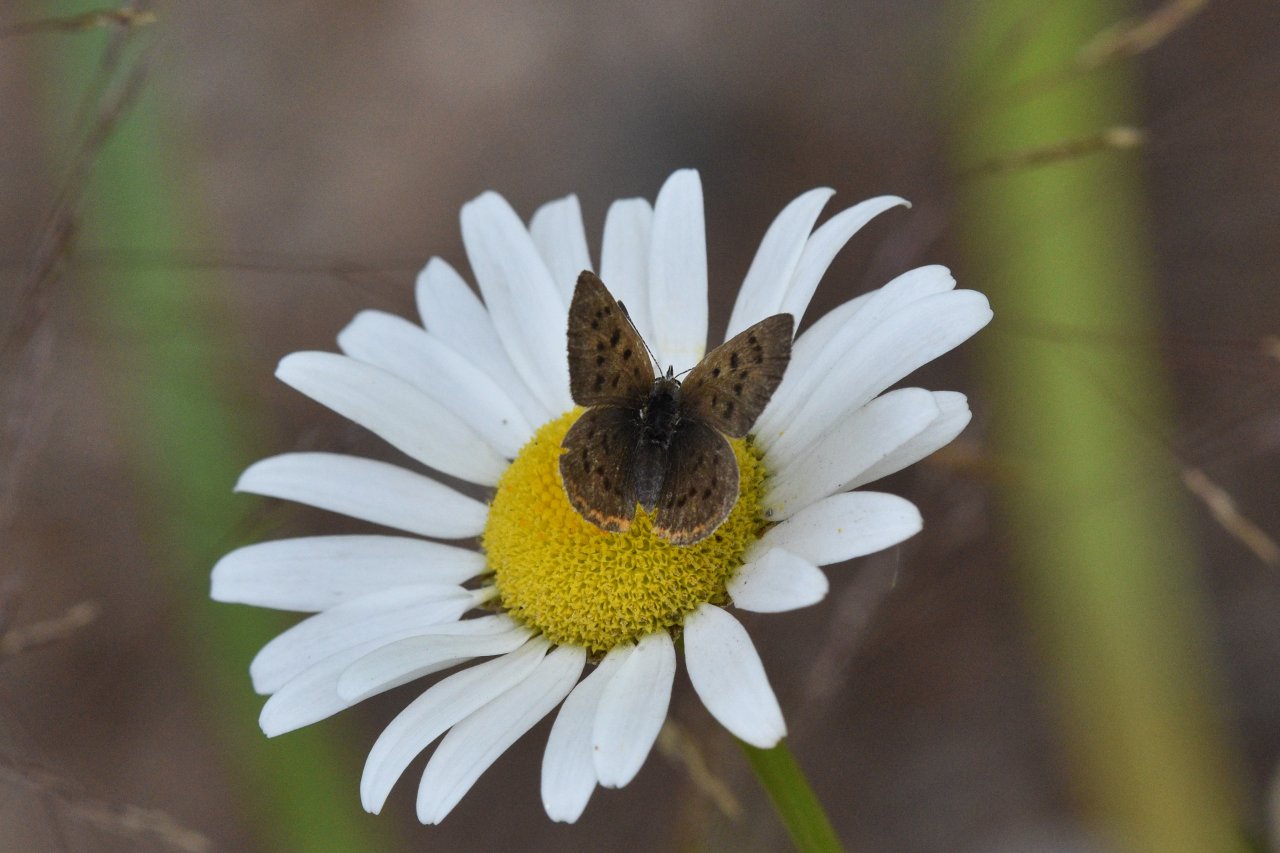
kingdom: Animalia
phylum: Arthropoda
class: Insecta
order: Lepidoptera
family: Sesiidae
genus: Sesia
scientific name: Sesia Lycaena epixanthe
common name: Bog Copper
